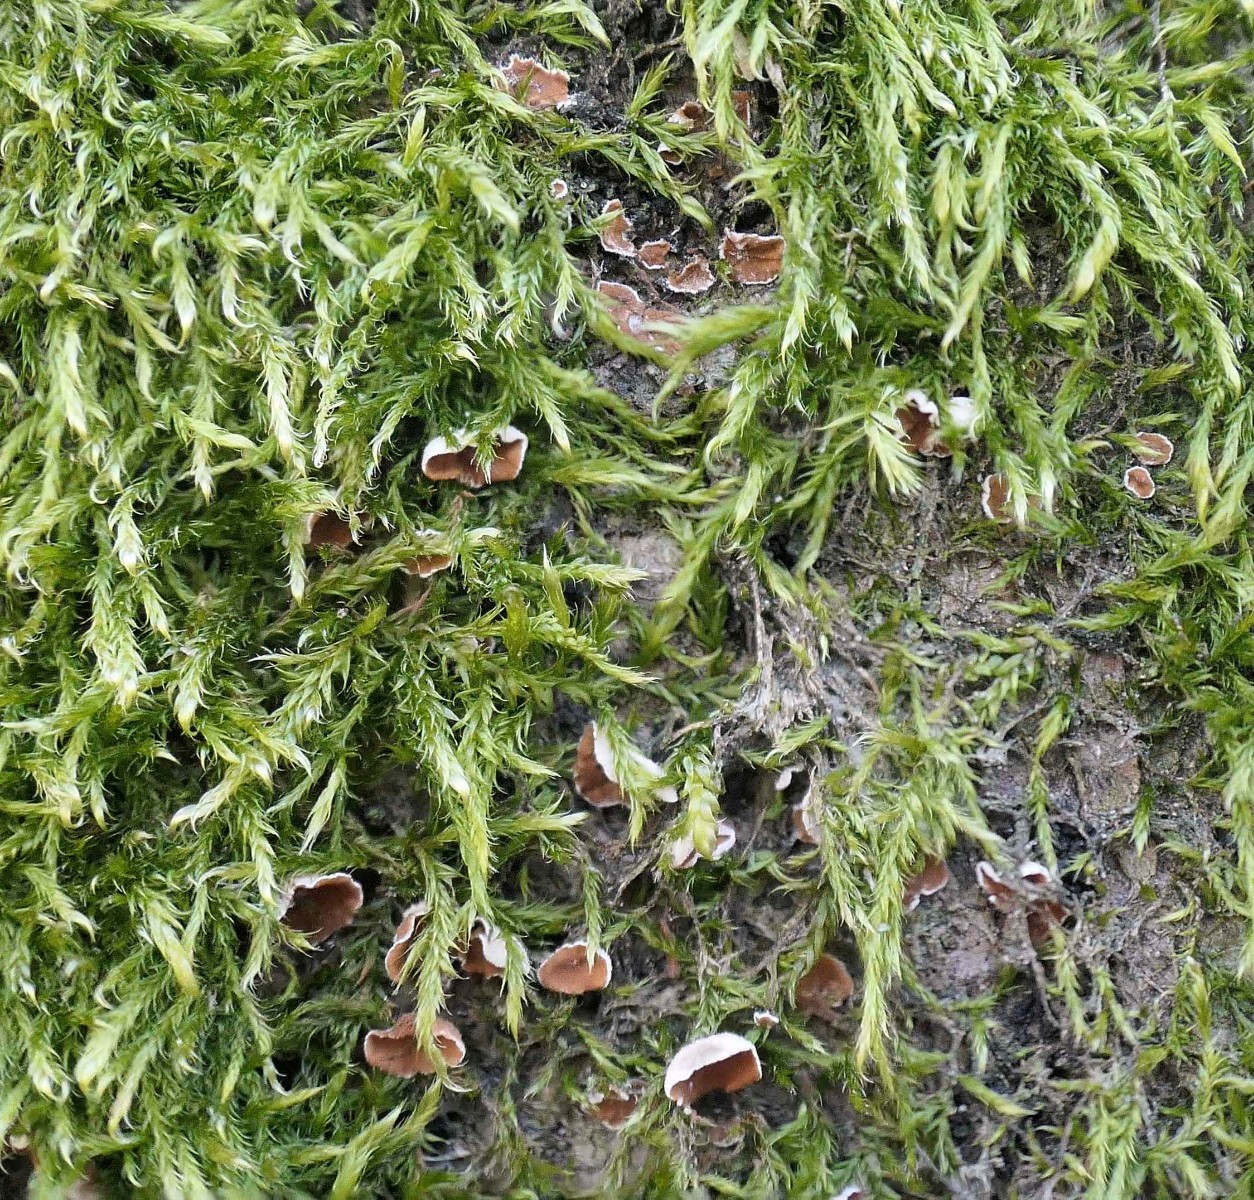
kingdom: Fungi
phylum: Basidiomycota
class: Agaricomycetes
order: Agaricales
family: Chromocyphellaceae
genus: Chromocyphella
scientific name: Chromocyphella muscicola
